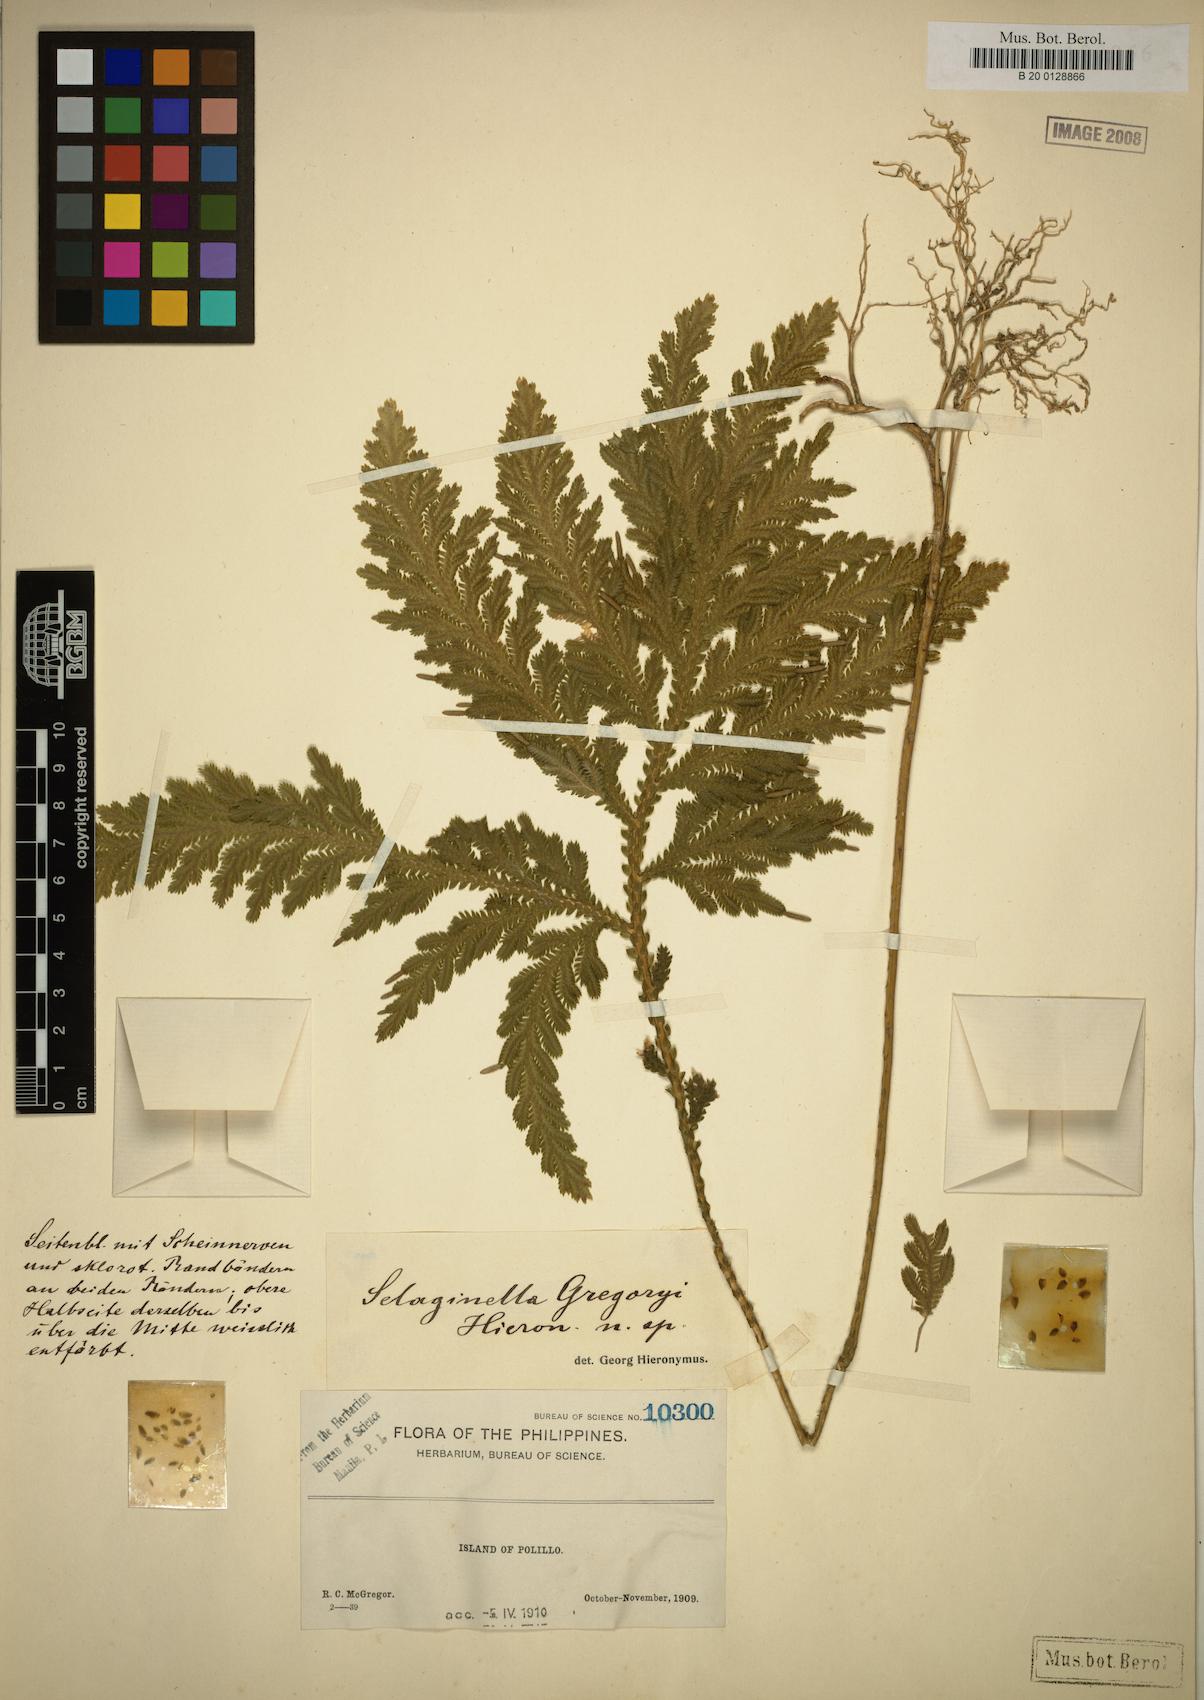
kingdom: Plantae
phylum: Tracheophyta
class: Lycopodiopsida
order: Selaginellales
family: Selaginellaceae
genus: Selaginella
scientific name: Selaginella fenixii
